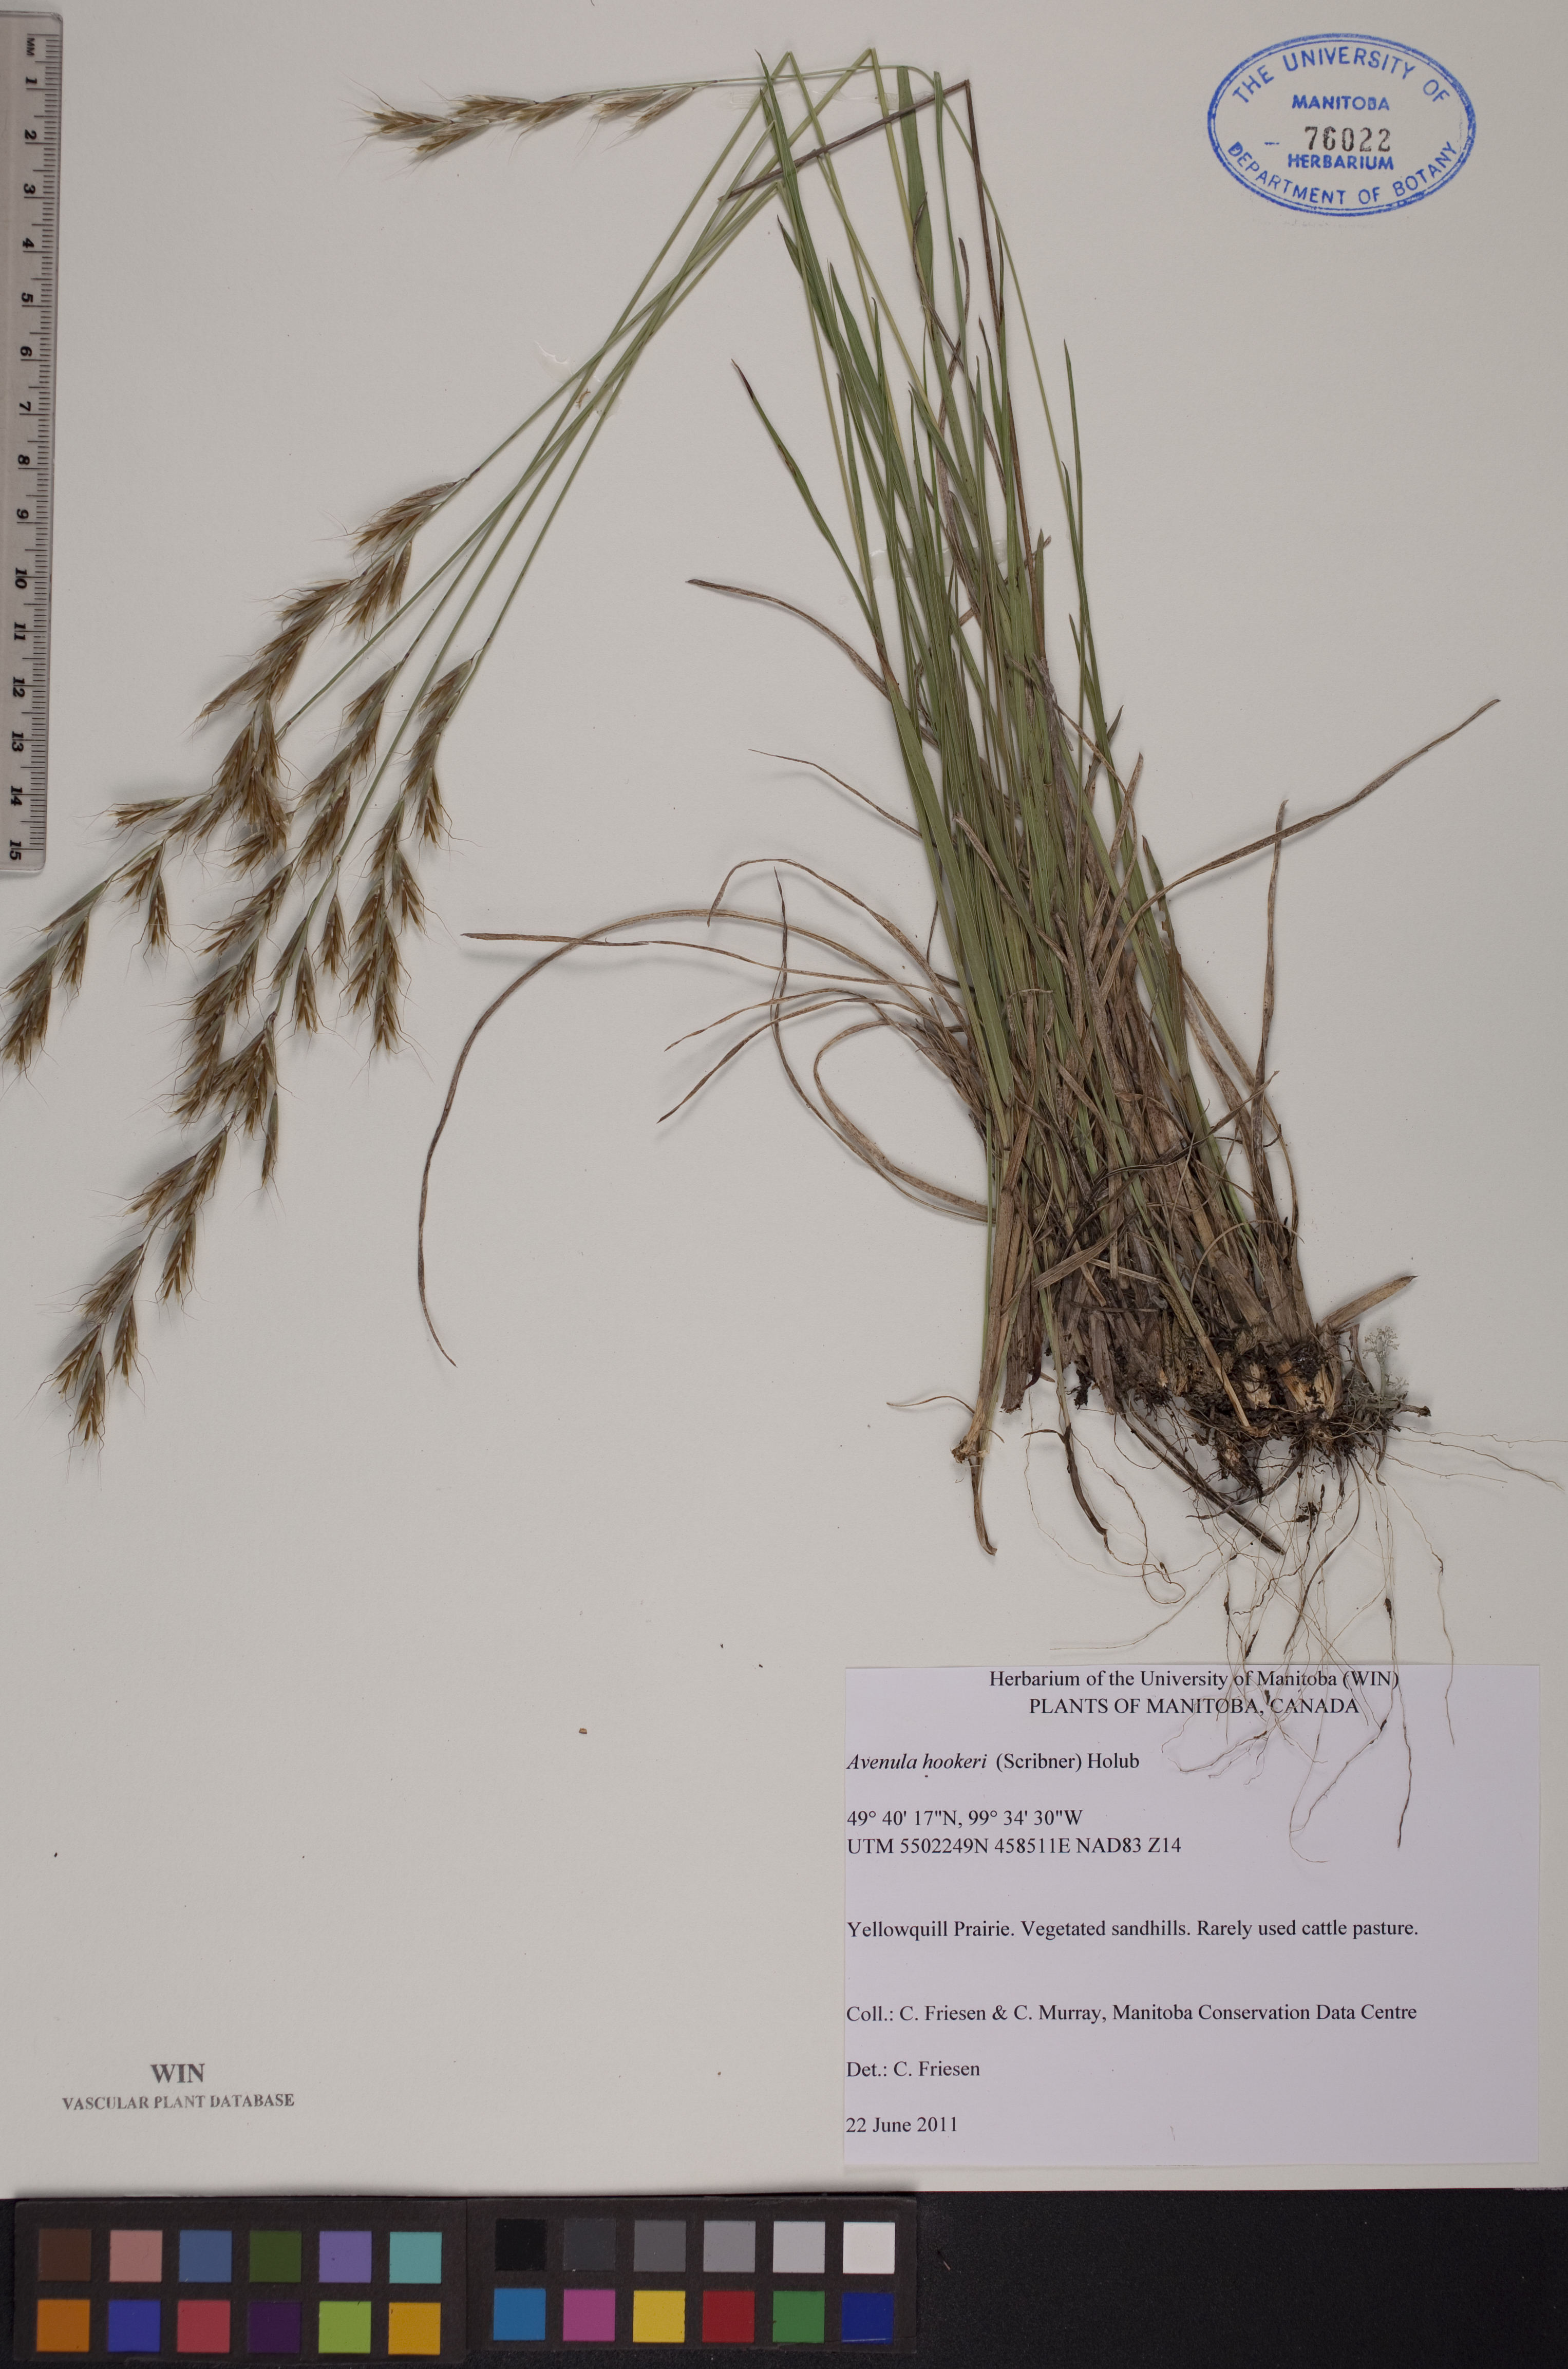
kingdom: Plantae
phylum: Tracheophyta
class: Liliopsida
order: Poales
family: Poaceae
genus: Helictochloa
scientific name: Helictochloa hookeri
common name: Hooker's alpine oatgrass
